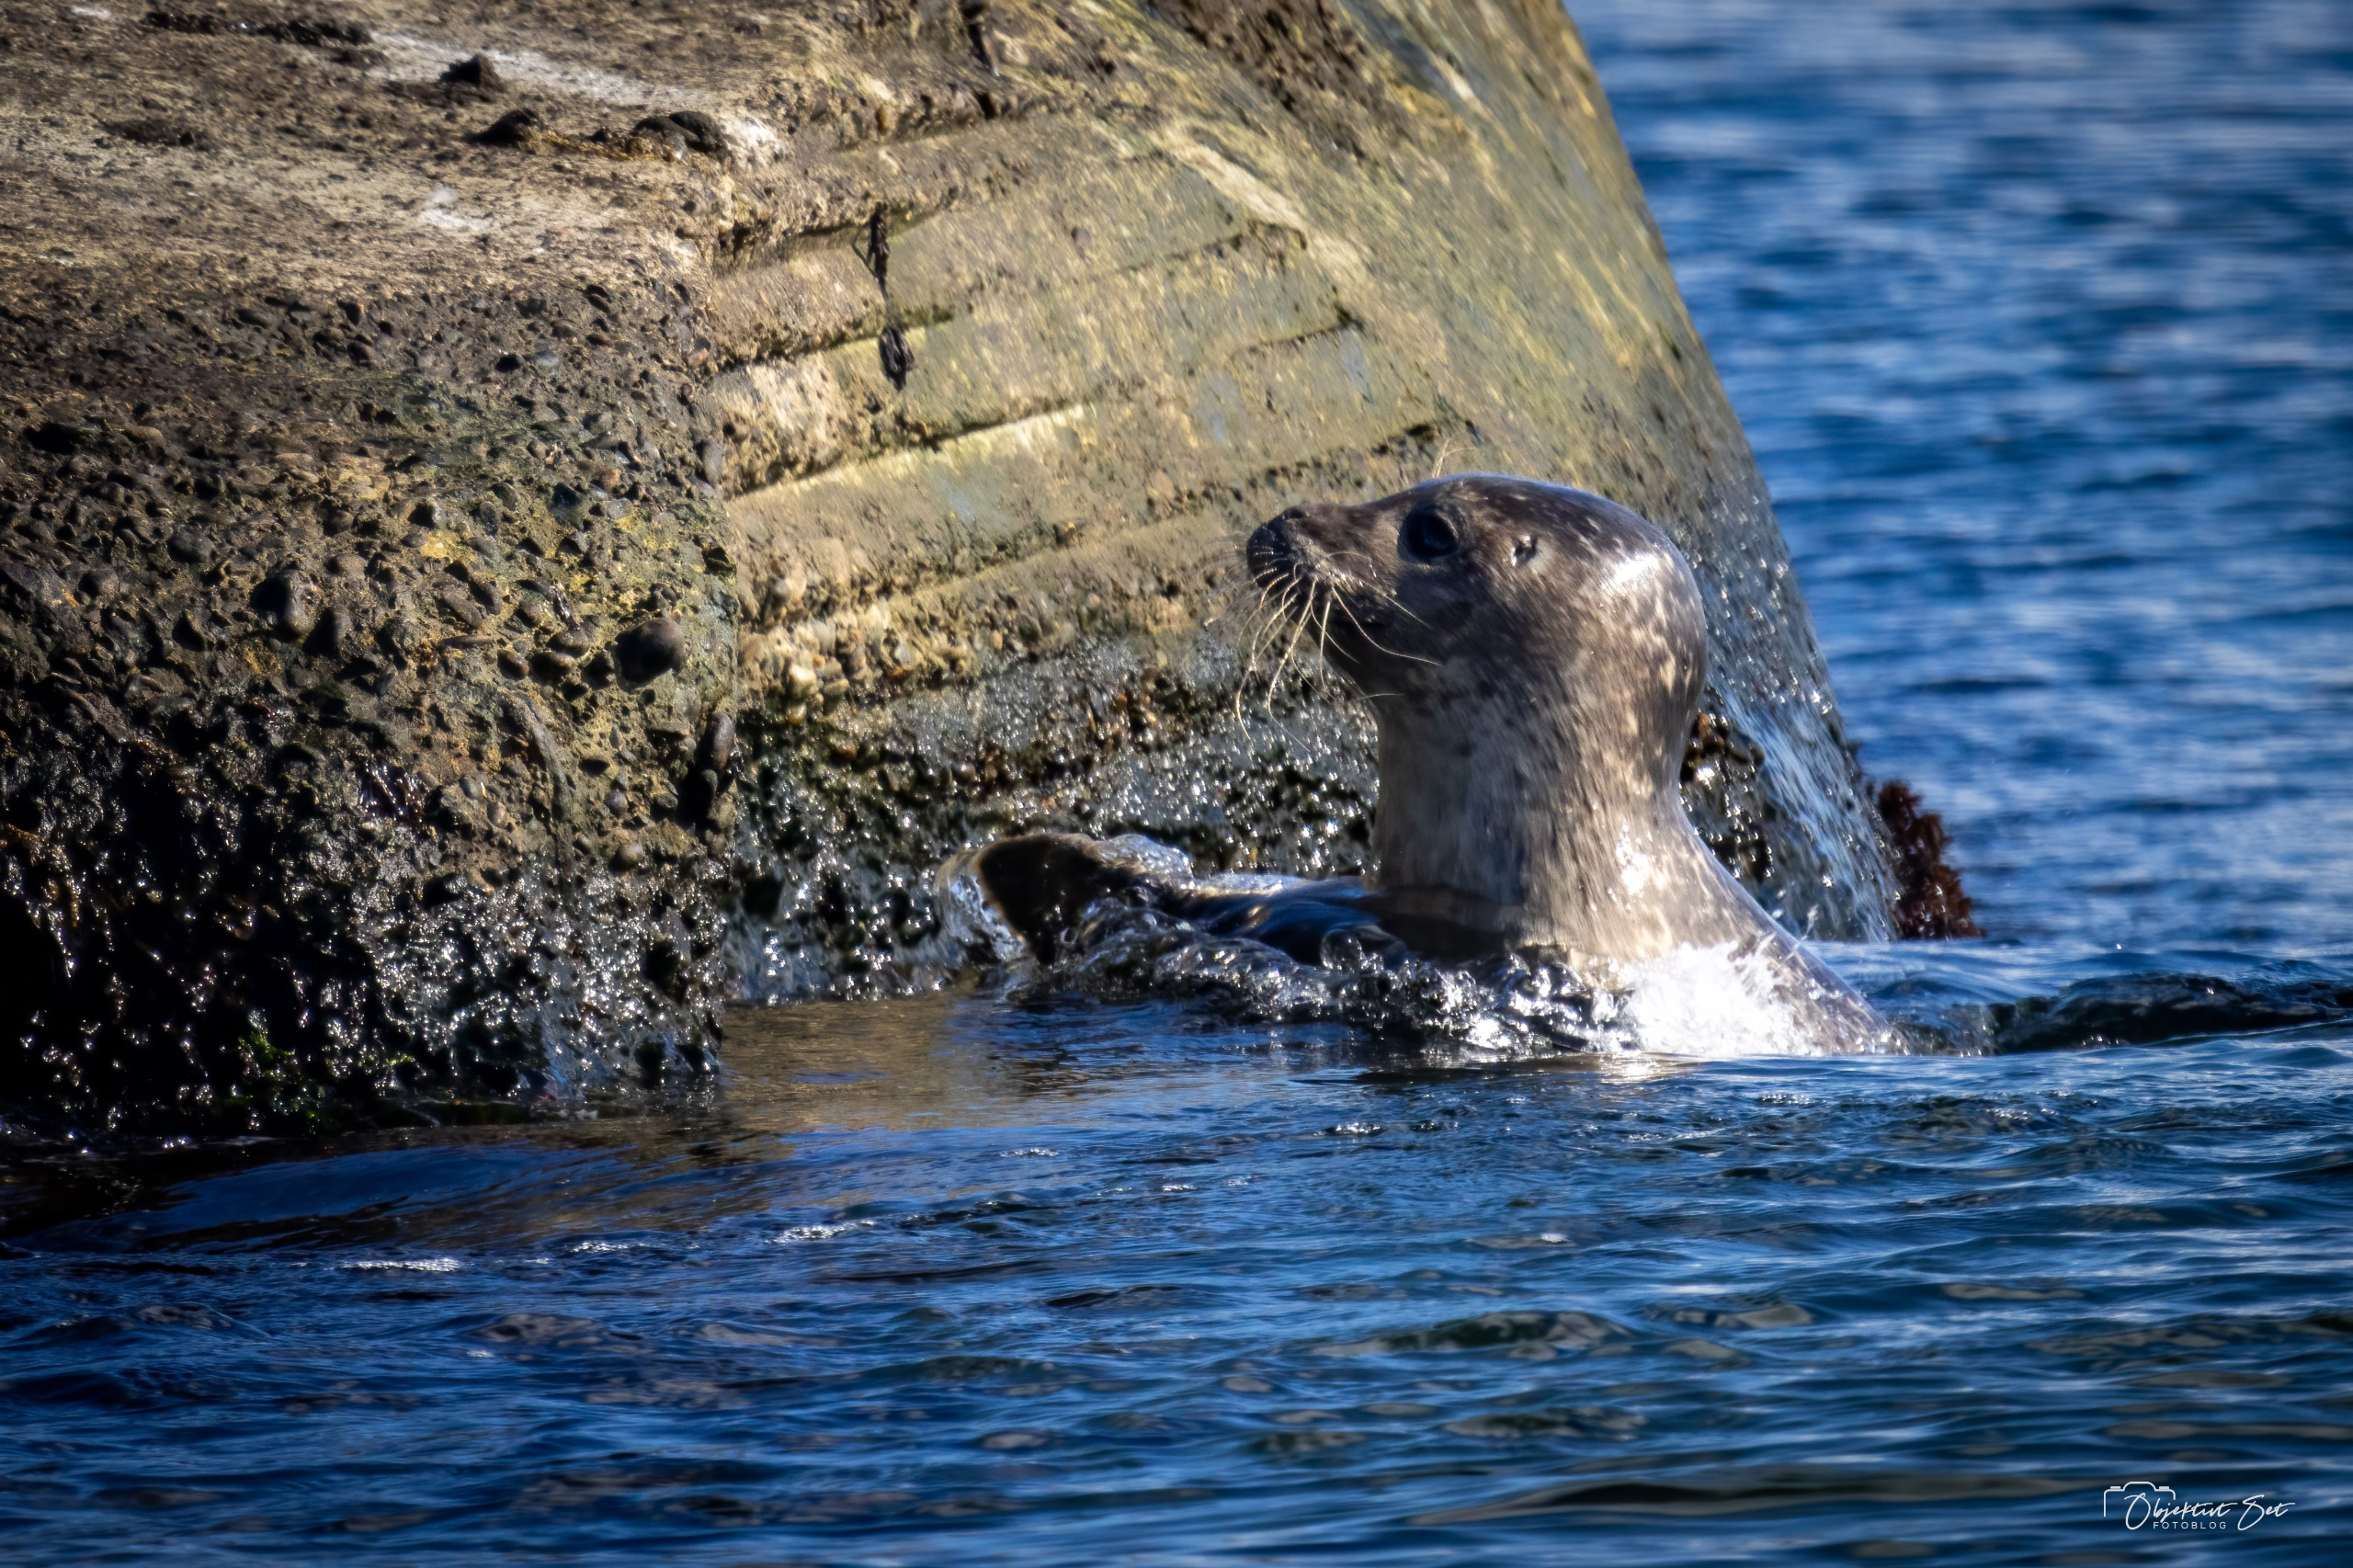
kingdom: Animalia
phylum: Chordata
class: Mammalia
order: Carnivora
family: Phocidae
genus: Phoca
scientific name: Phoca vitulina
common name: Spættet sæl
